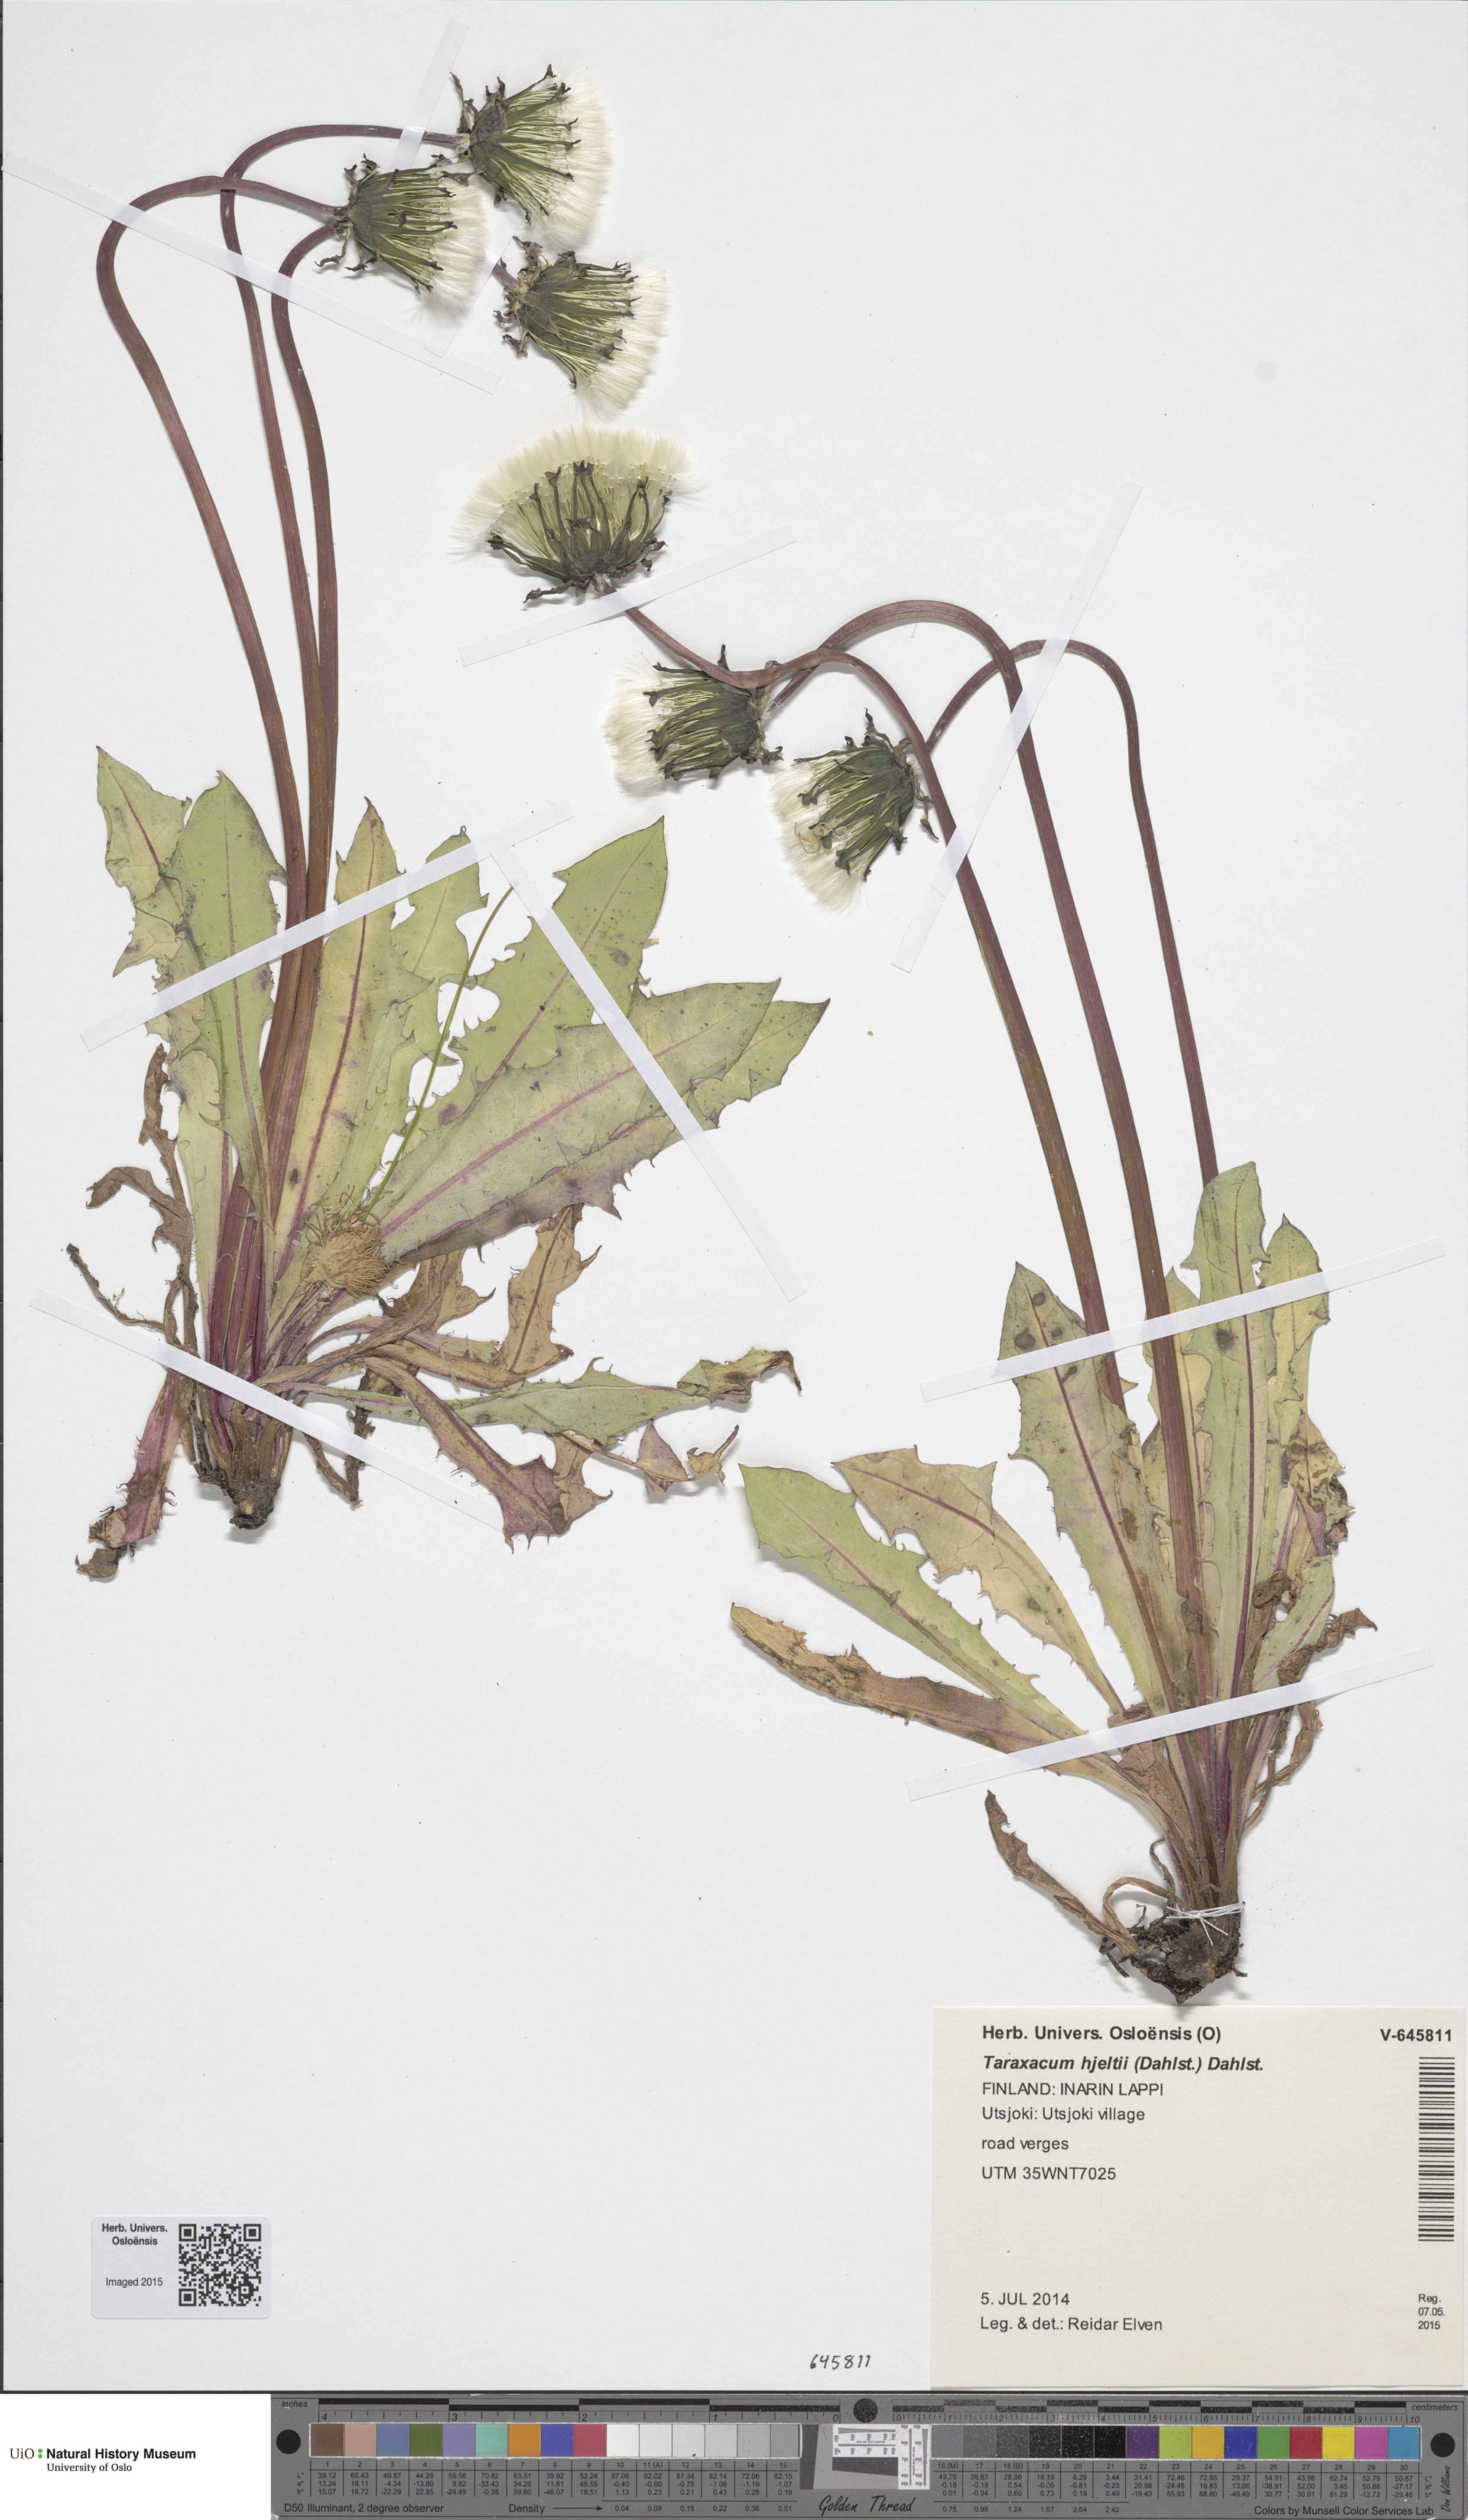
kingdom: Plantae
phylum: Tracheophyta
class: Magnoliopsida
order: Asterales
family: Asteraceae
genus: Taraxacum
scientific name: Taraxacum hjeltii
